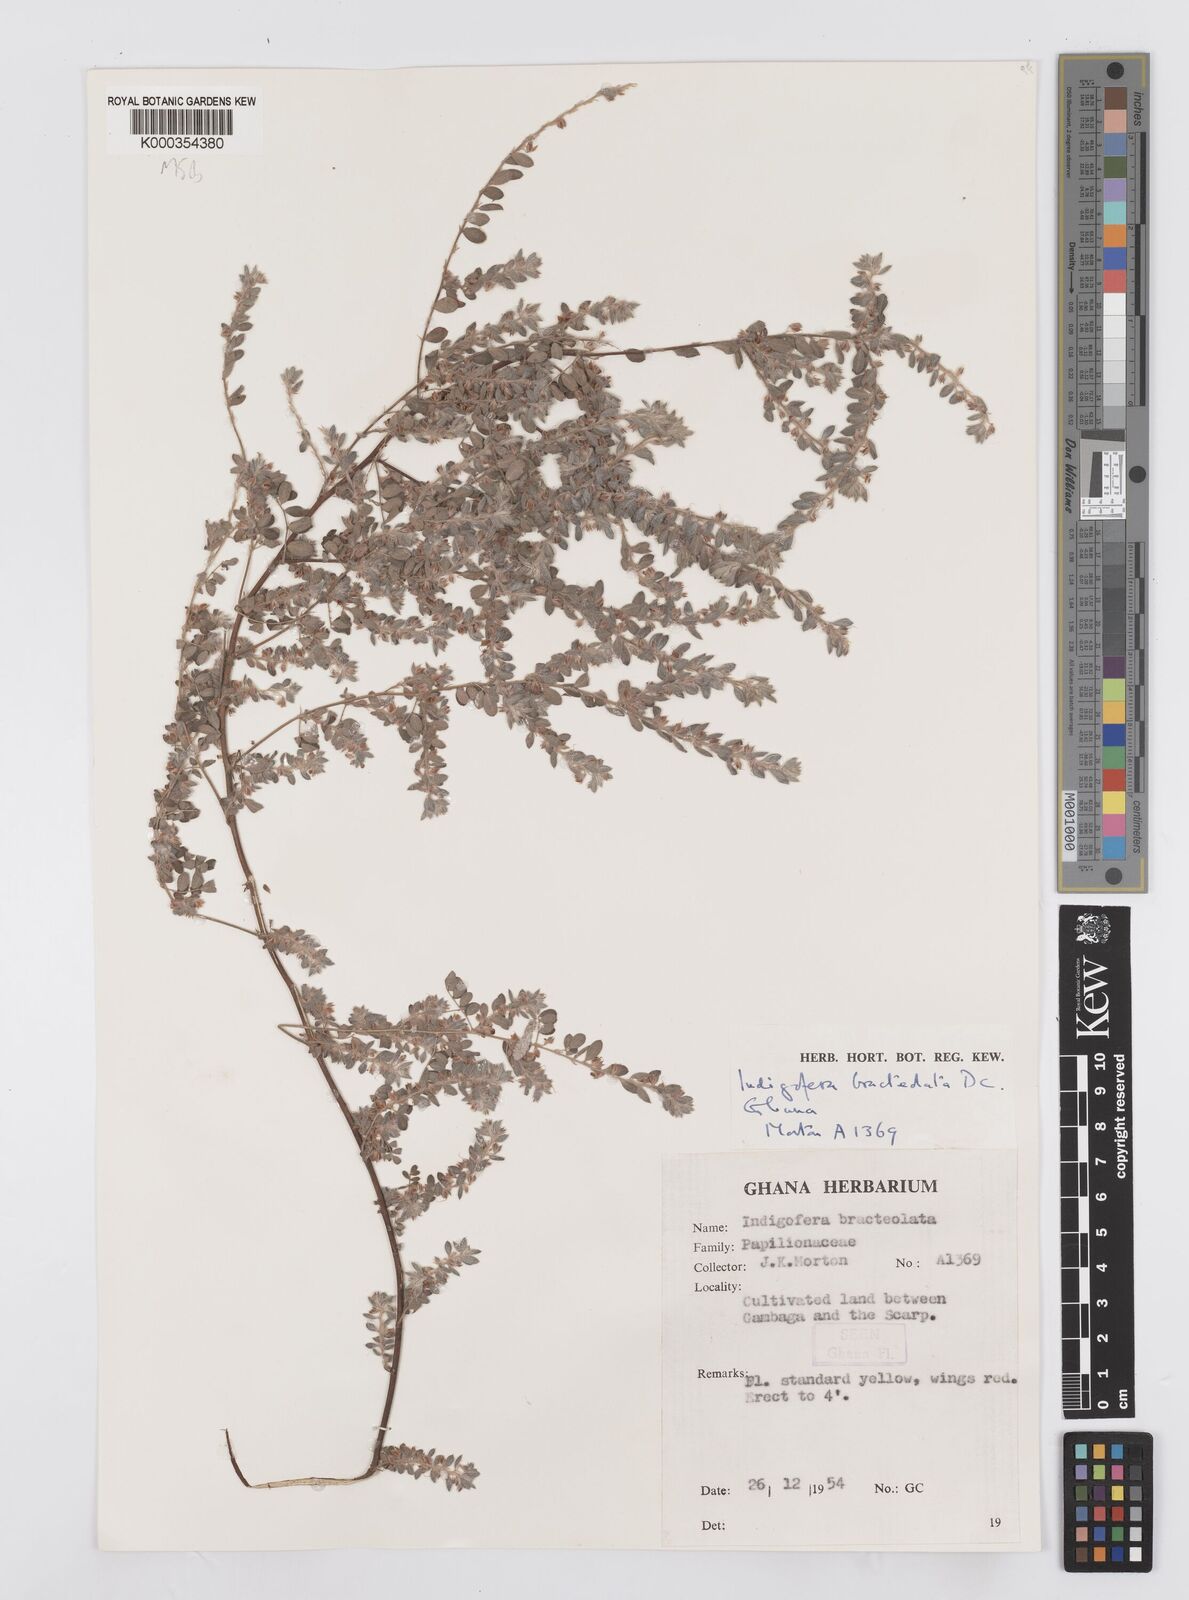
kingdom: Plantae
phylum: Tracheophyta
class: Magnoliopsida
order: Fabales
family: Fabaceae
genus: Indigofera
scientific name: Indigofera bracteolata
